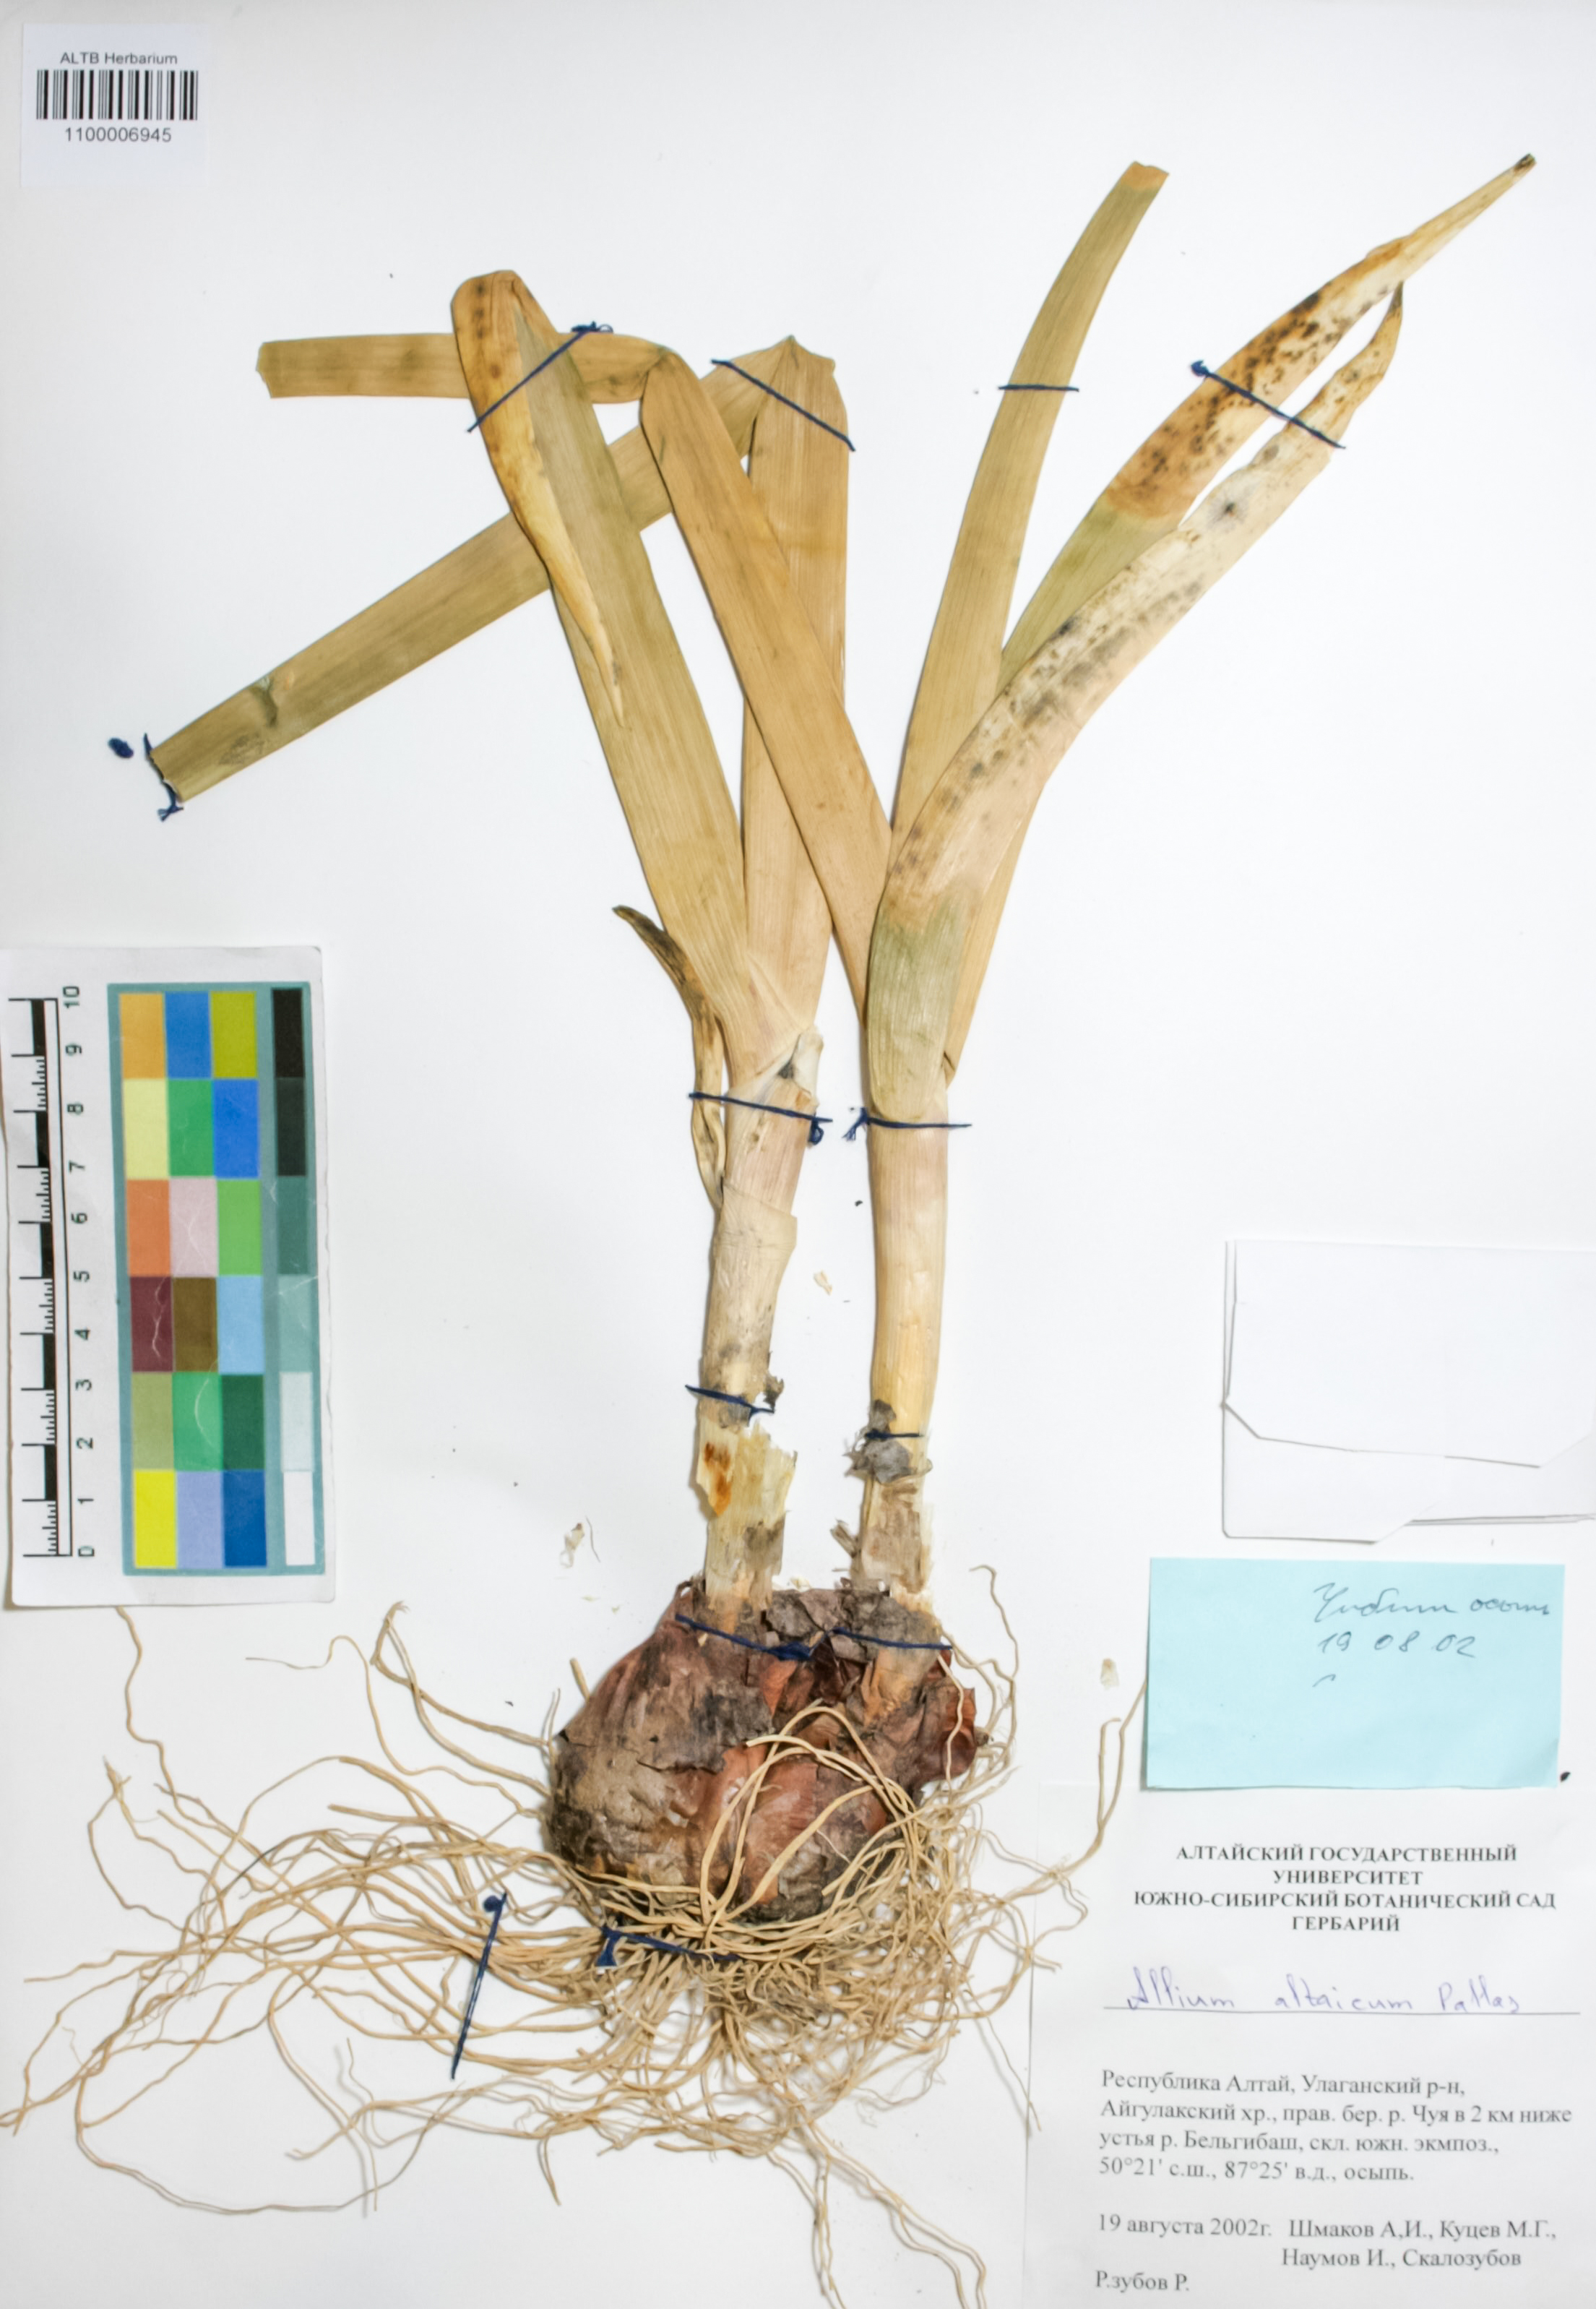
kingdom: Plantae
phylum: Tracheophyta
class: Liliopsida
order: Asparagales
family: Amaryllidaceae
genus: Allium
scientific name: Allium altaicum
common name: Altai onion
